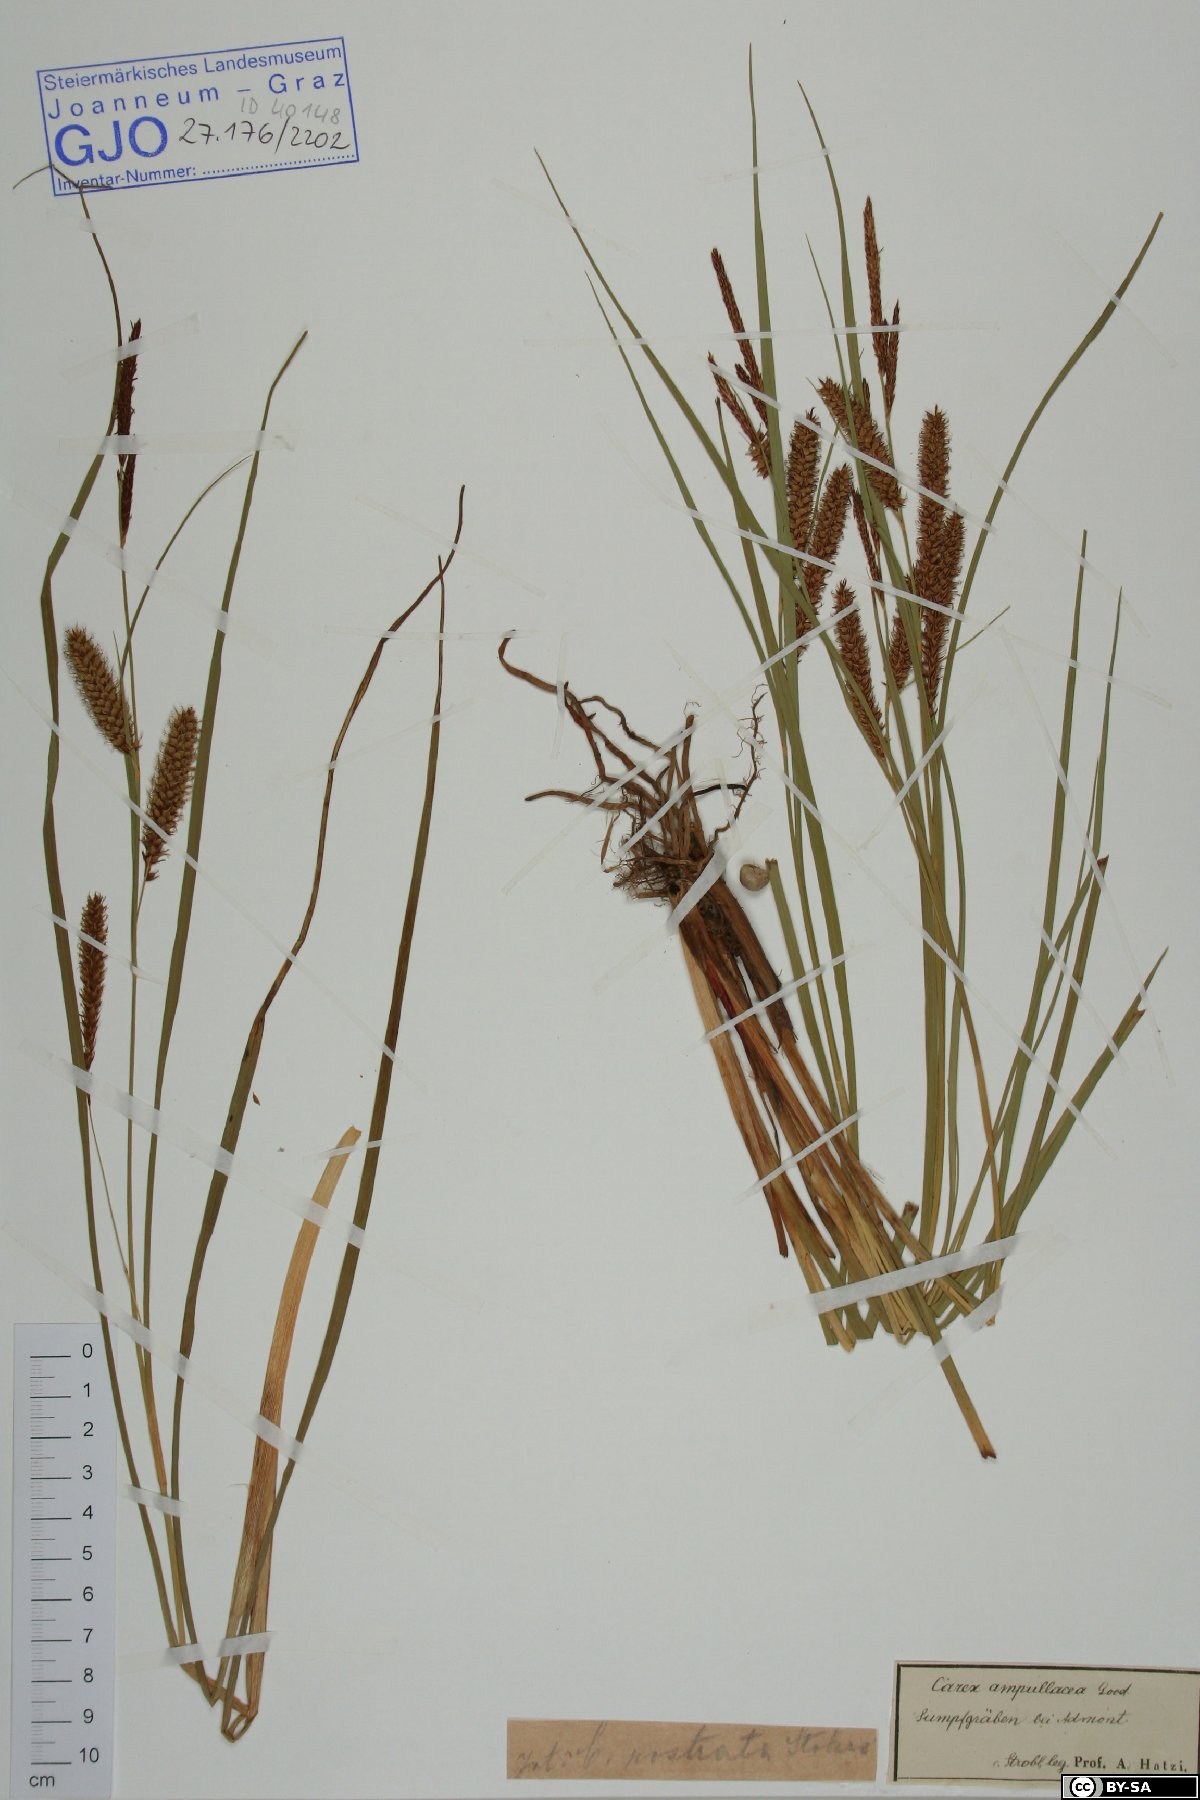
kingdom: Plantae
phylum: Tracheophyta
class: Liliopsida
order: Poales
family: Cyperaceae
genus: Carex
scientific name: Carex rostrata
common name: Bottle sedge
